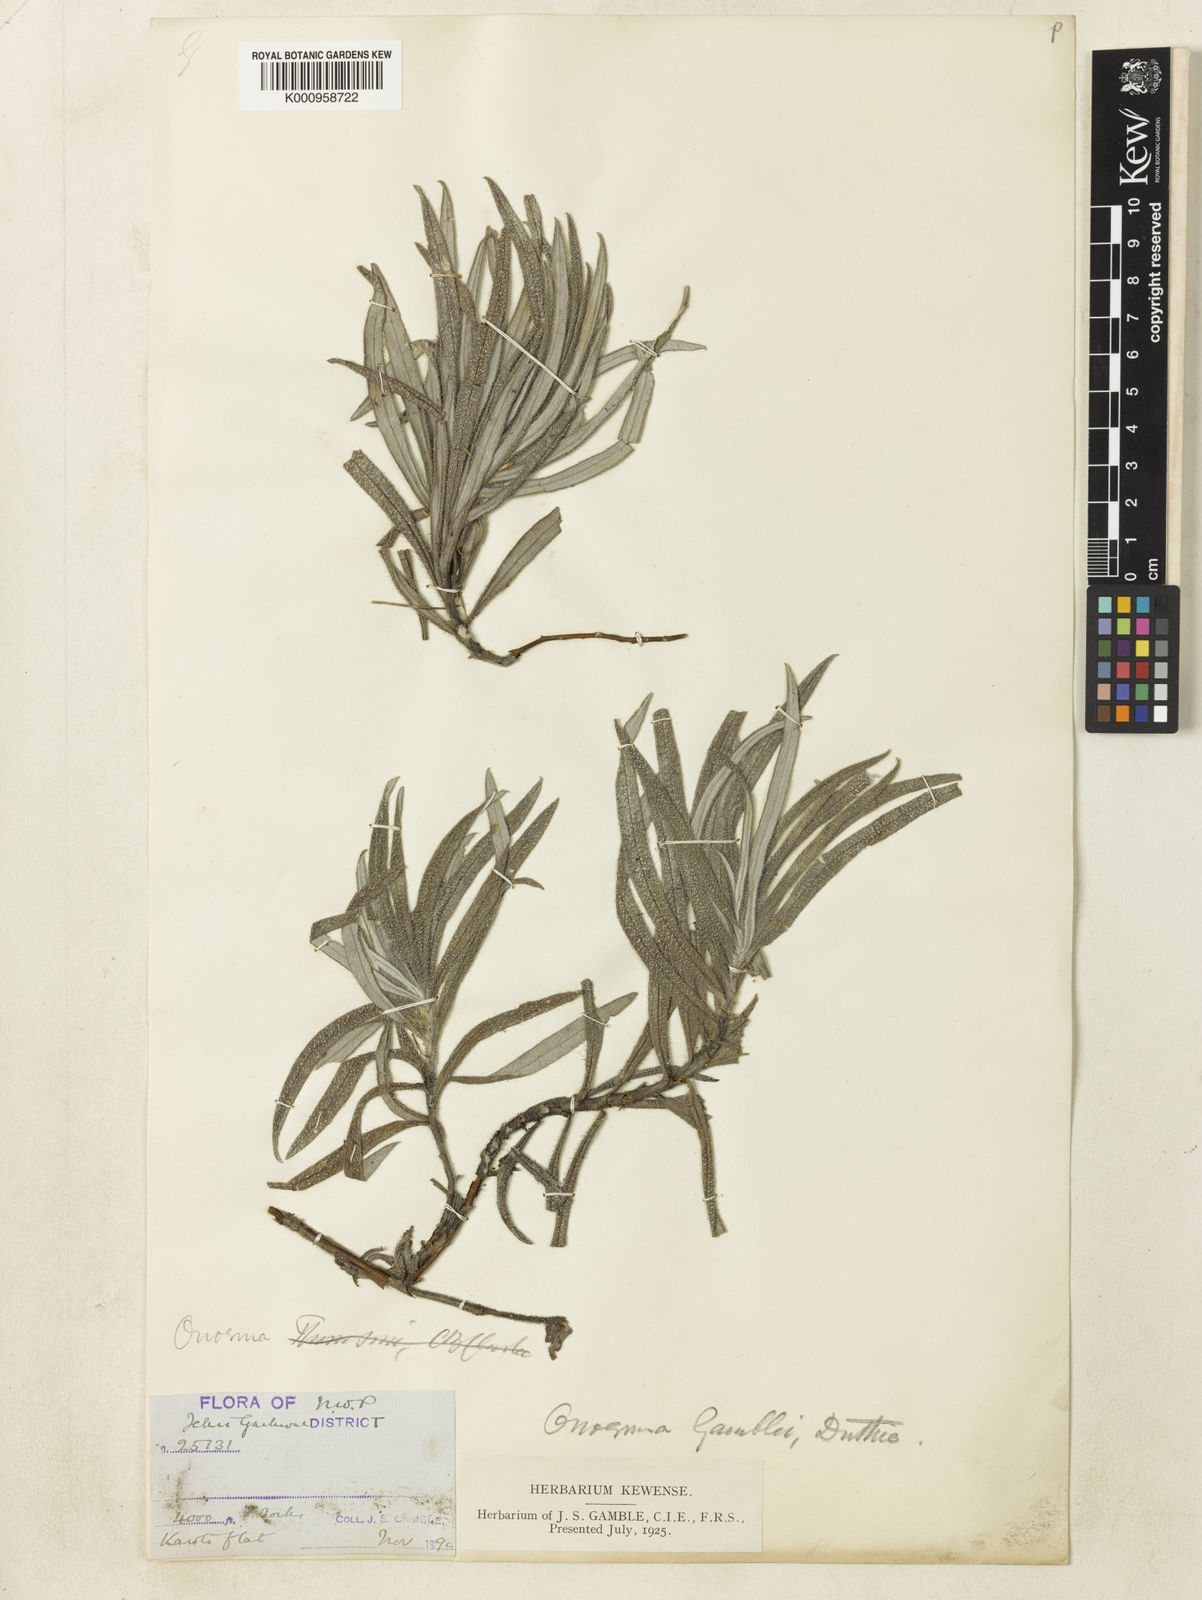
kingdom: Plantae
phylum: Tracheophyta
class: Magnoliopsida
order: Boraginales
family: Boraginaceae
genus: Maharanga
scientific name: Maharanga thomsonii
